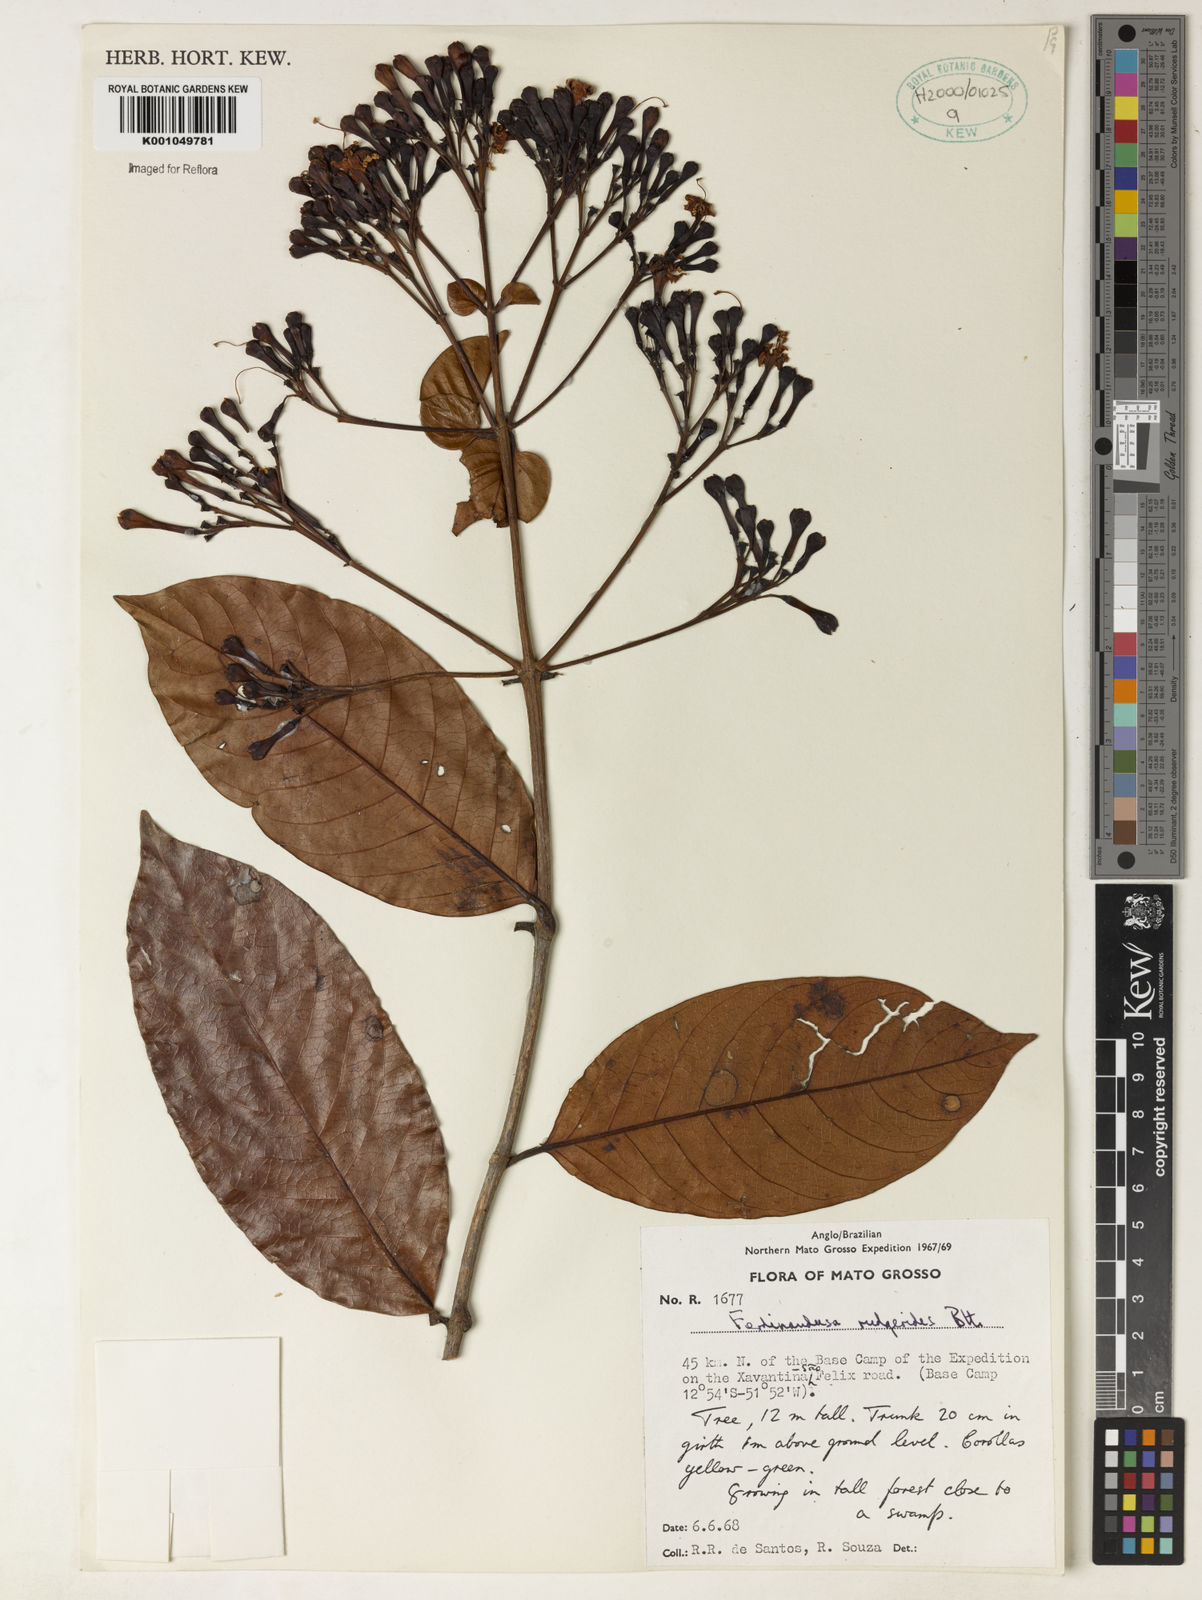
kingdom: Plantae
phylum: Tracheophyta
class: Magnoliopsida
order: Gentianales
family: Rubiaceae
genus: Ferdinandusa
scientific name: Ferdinandusa rudgeoides
